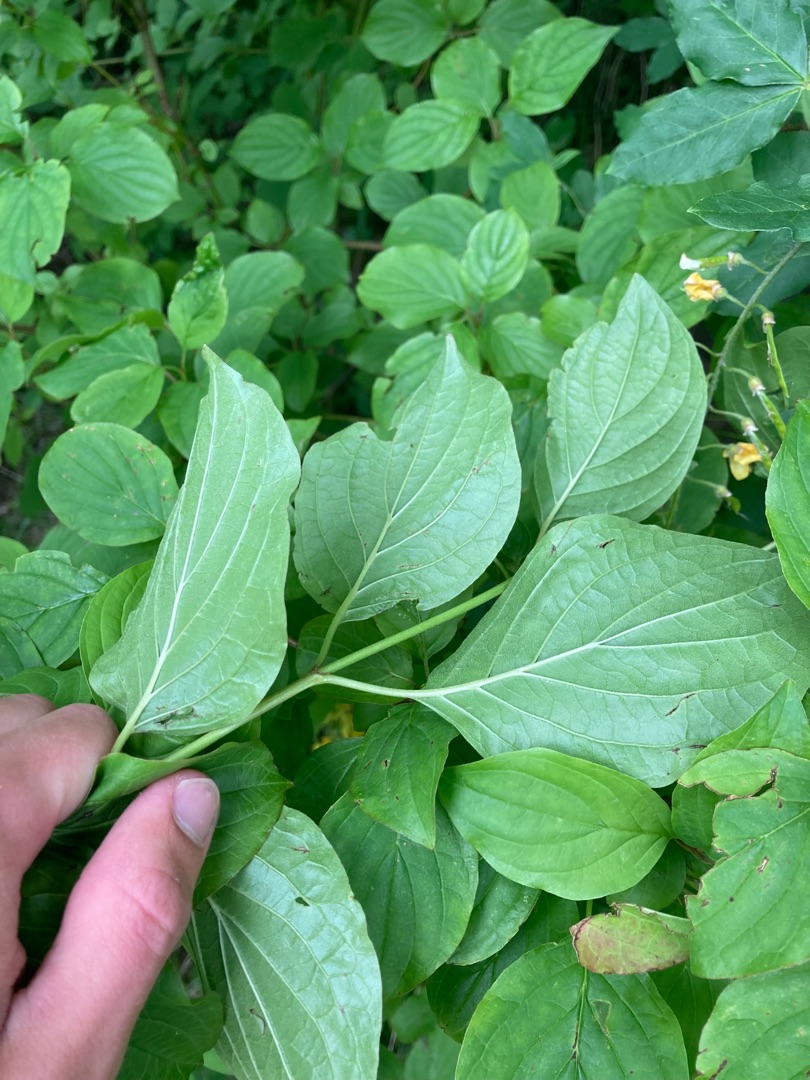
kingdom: Plantae
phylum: Tracheophyta
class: Magnoliopsida
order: Cornales
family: Cornaceae
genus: Cornus
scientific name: Cornus sanguinea
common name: Rød kornel
